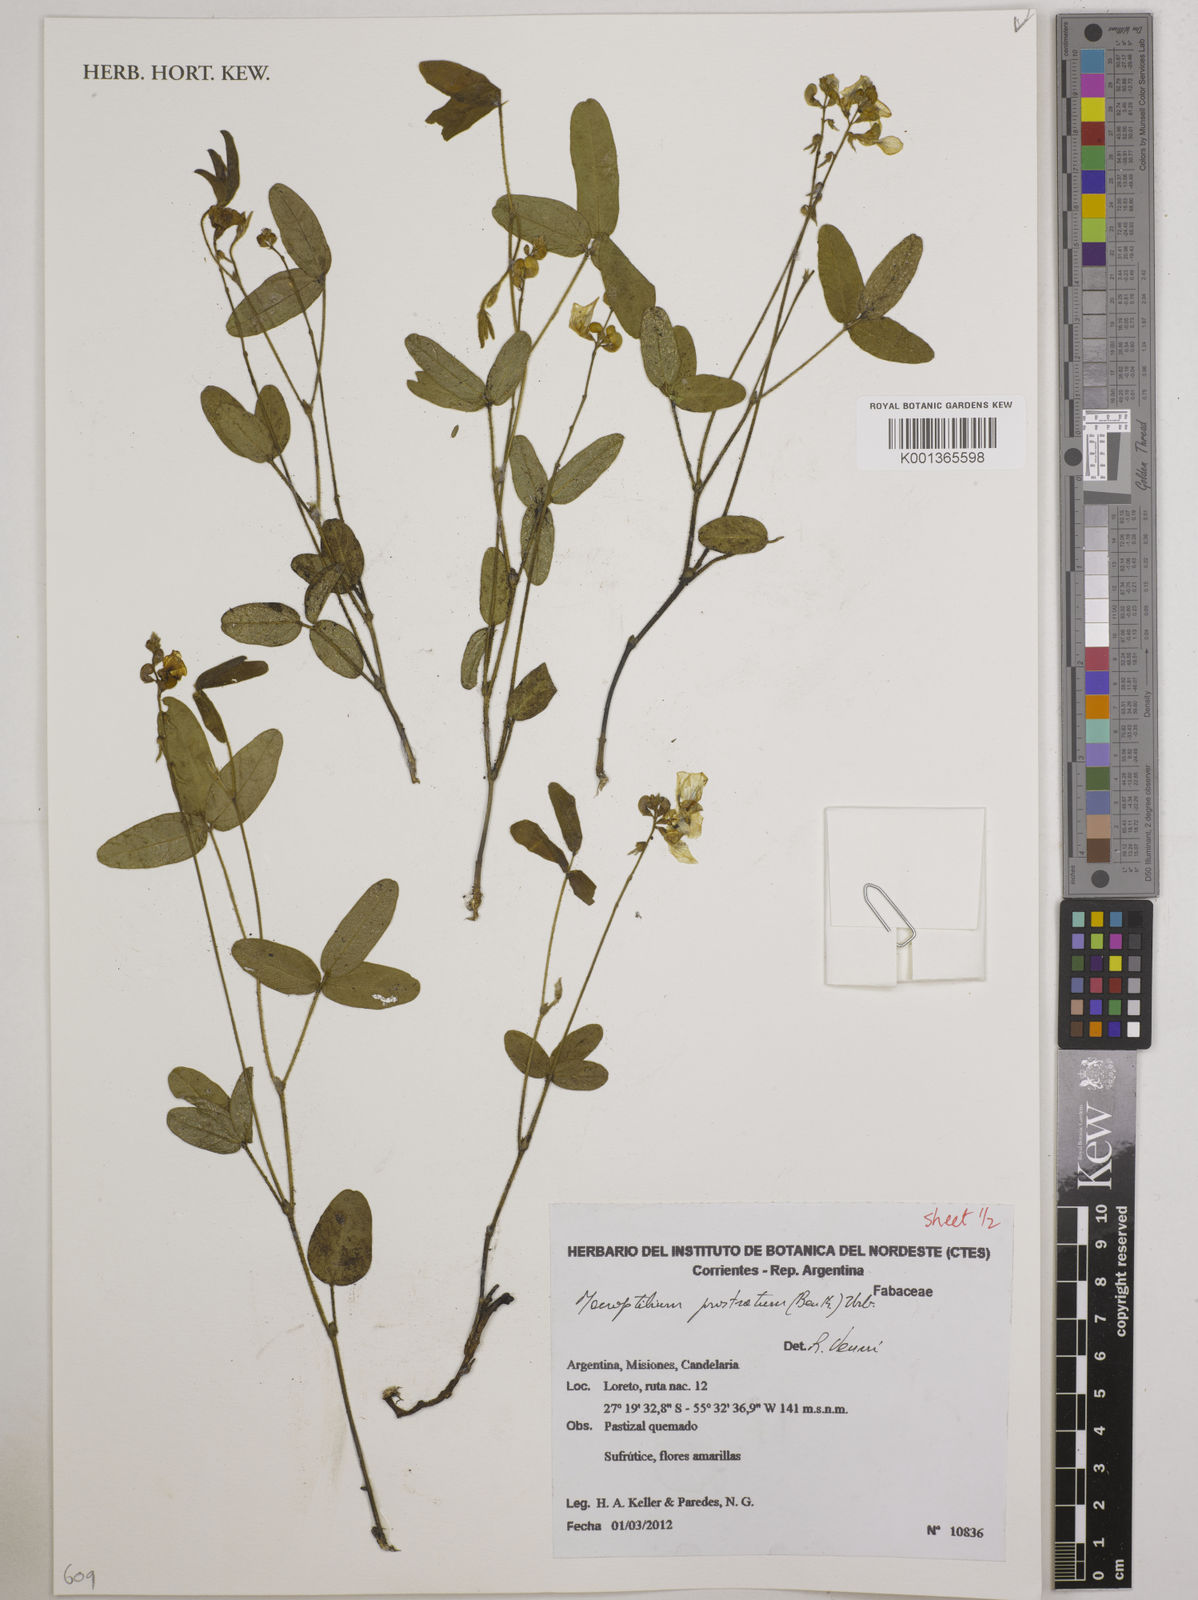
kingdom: Plantae
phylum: Tracheophyta
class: Magnoliopsida
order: Fabales
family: Fabaceae
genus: Macroptilium
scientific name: Macroptilium prostratum
